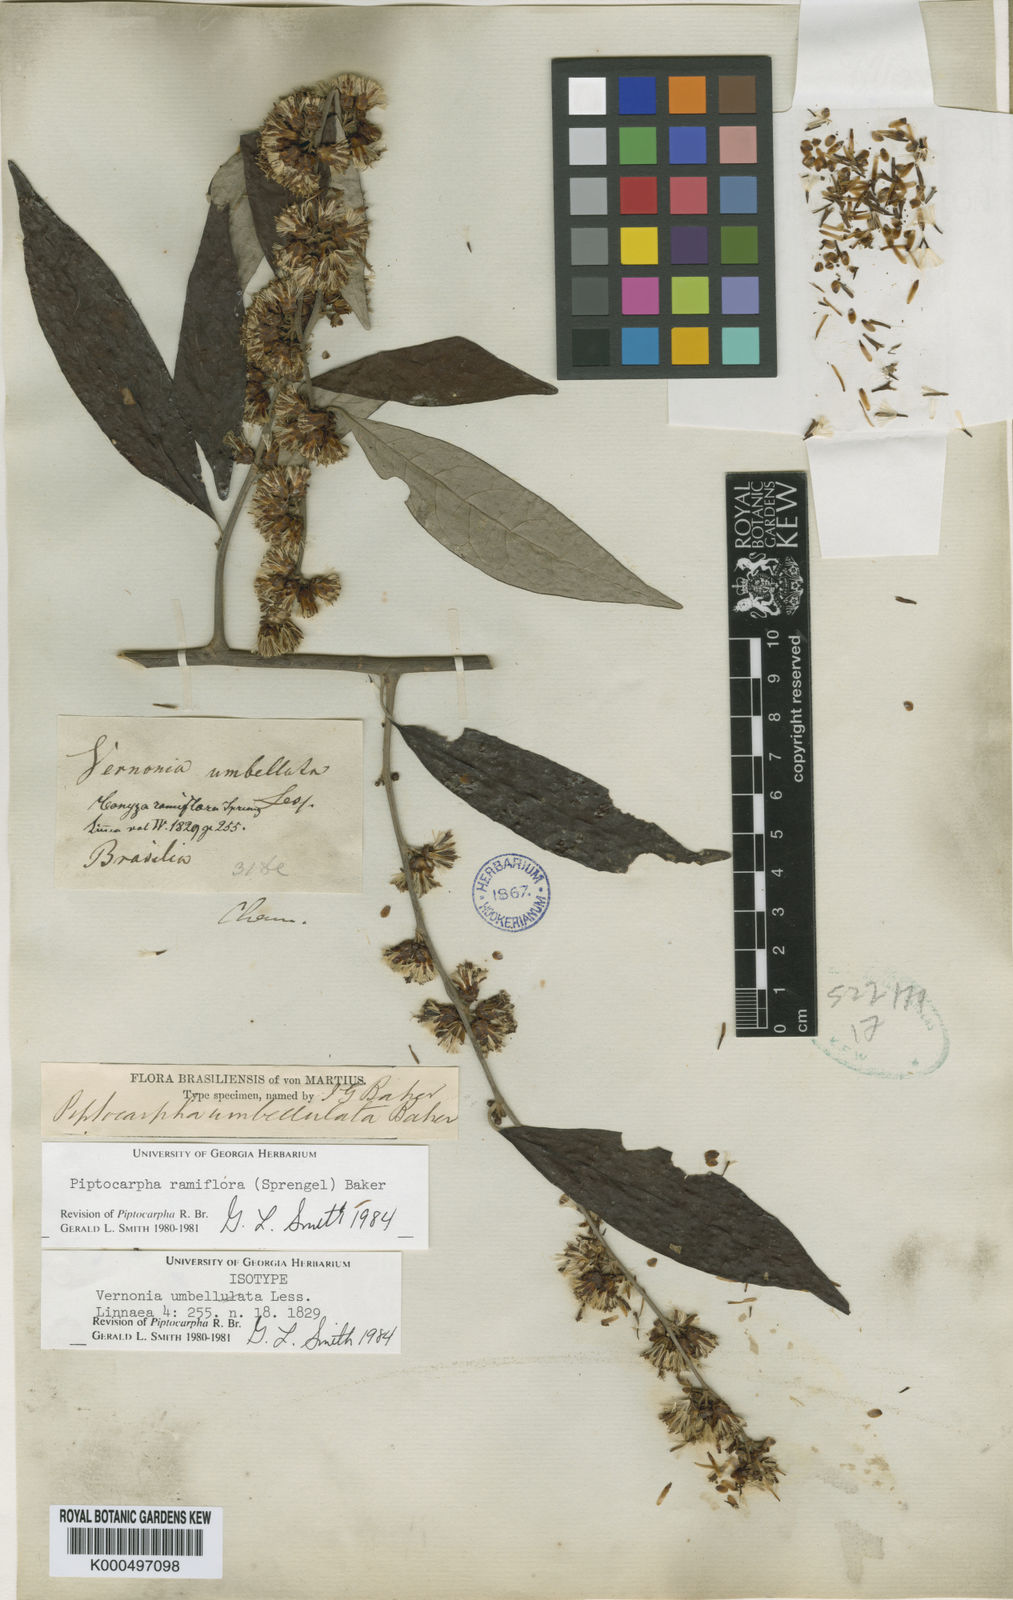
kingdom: Plantae
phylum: Tracheophyta
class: Magnoliopsida
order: Asterales
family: Asteraceae
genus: Piptocarpha
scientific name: Piptocarpha ramiflora
